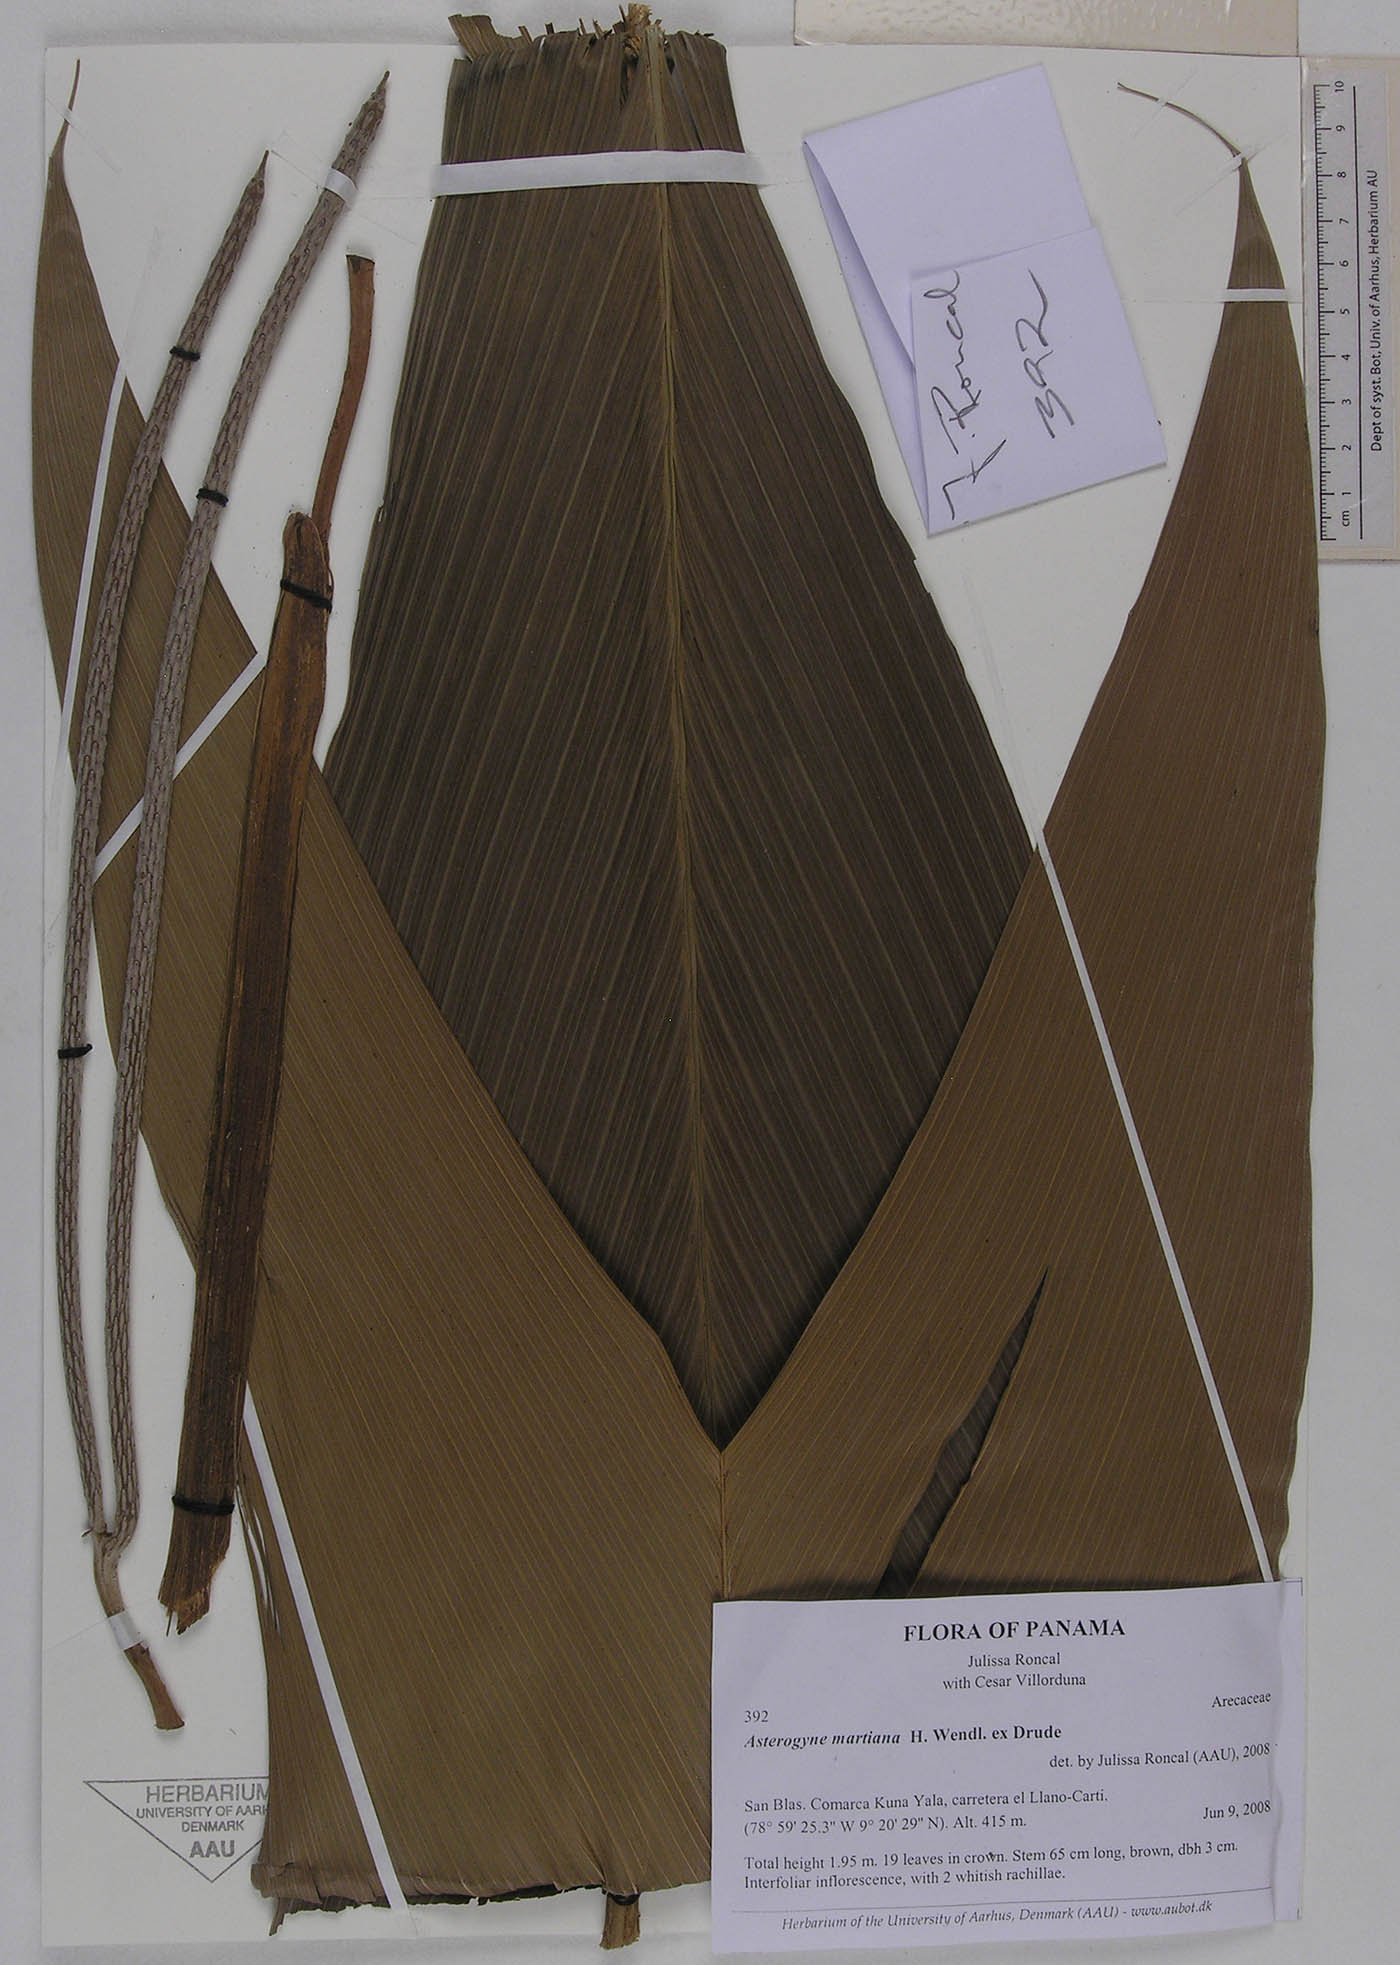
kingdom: Plantae
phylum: Tracheophyta
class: Liliopsida
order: Arecales
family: Arecaceae
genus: Asterogyne
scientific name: Asterogyne martiana
